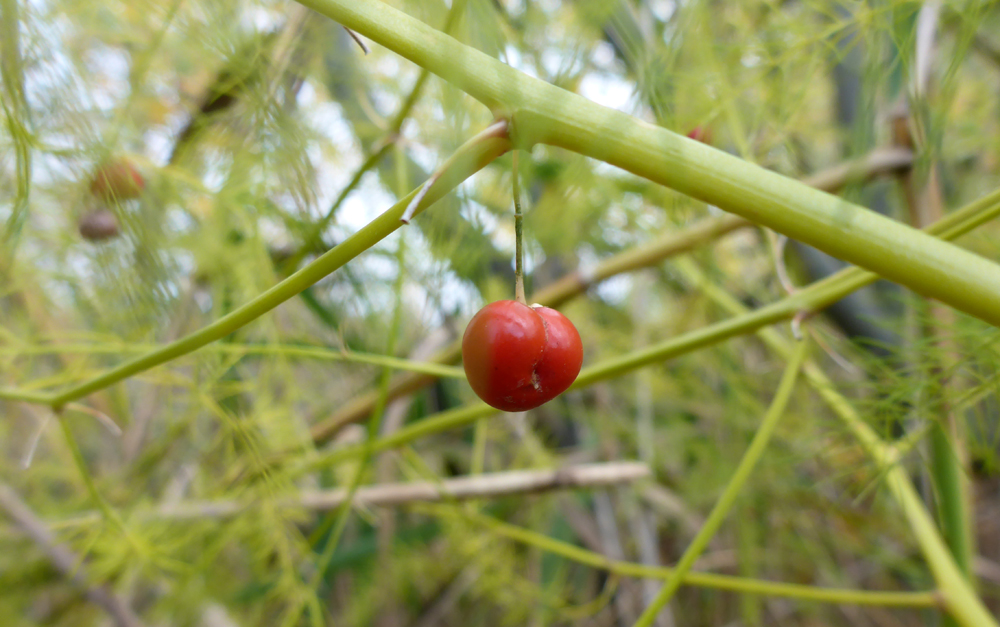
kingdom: Plantae
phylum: Tracheophyta
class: Liliopsida
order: Asparagales
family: Asparagaceae
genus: Asparagus
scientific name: Asparagus officinalis
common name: Garden asparagus
